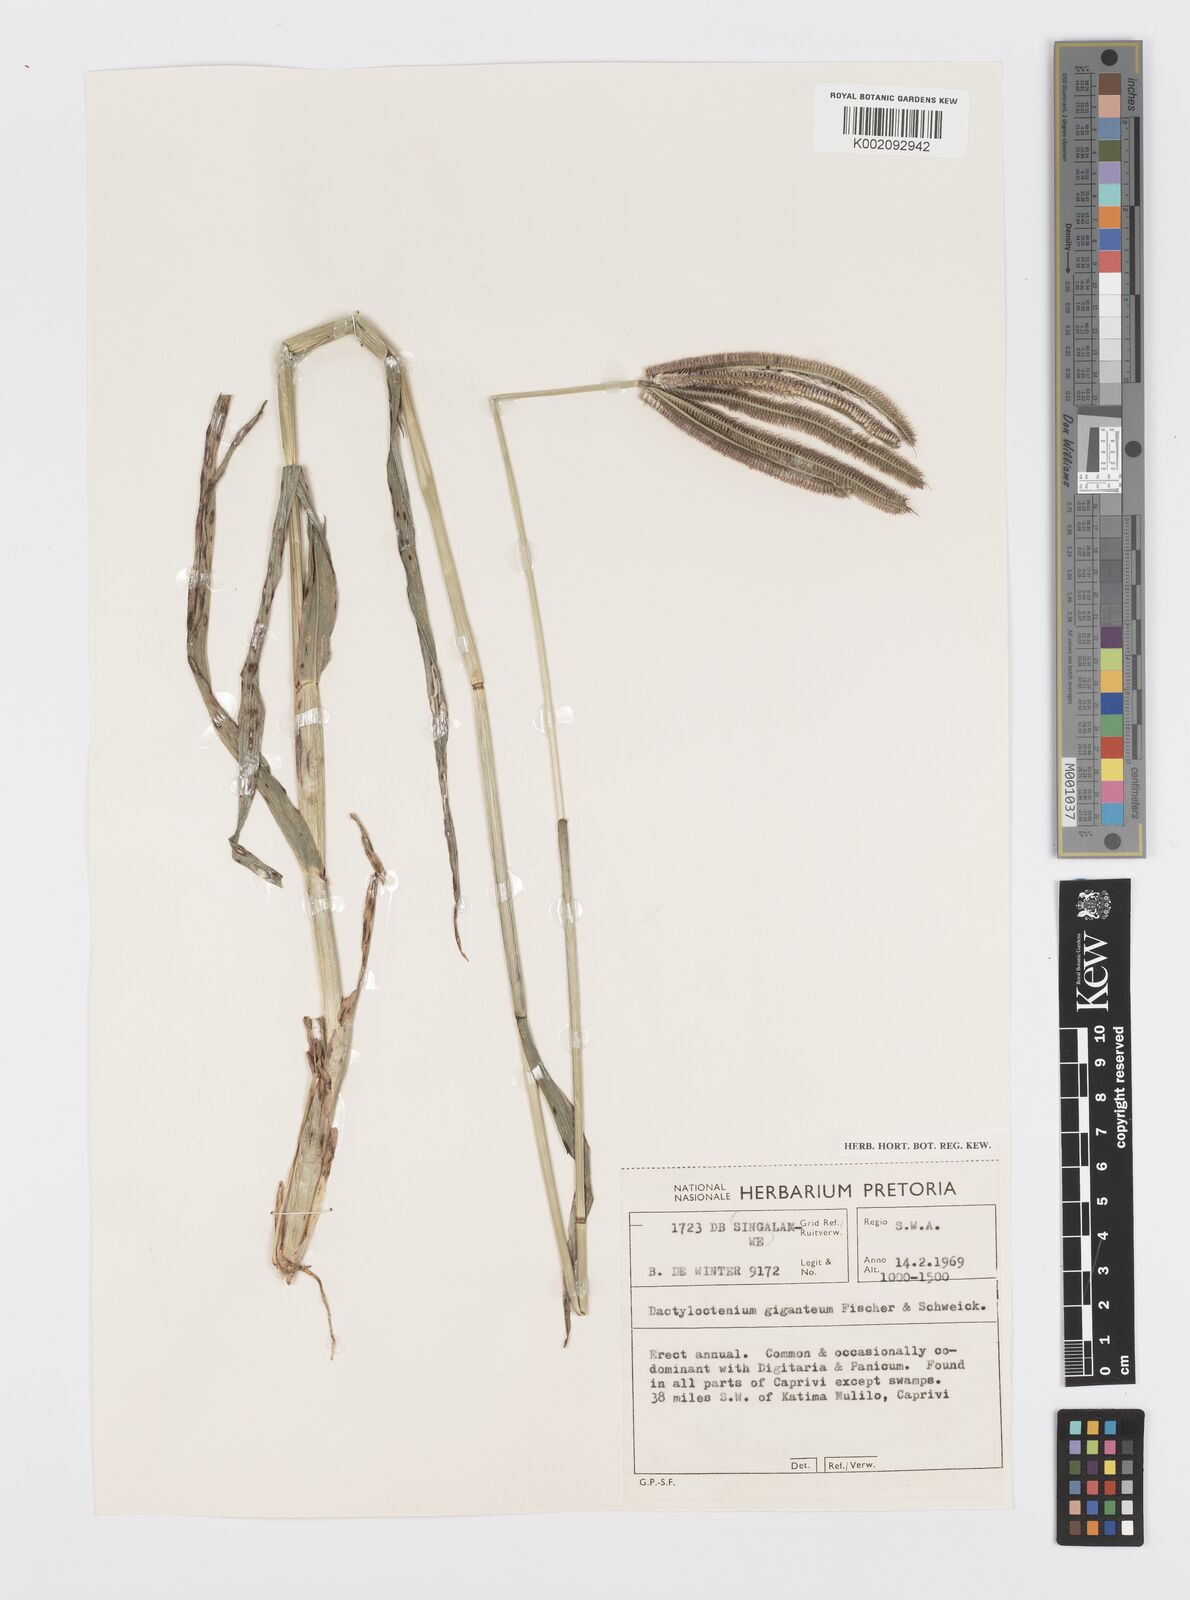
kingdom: Plantae
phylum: Tracheophyta
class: Liliopsida
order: Poales
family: Poaceae
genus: Dactyloctenium
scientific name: Dactyloctenium giganteum
